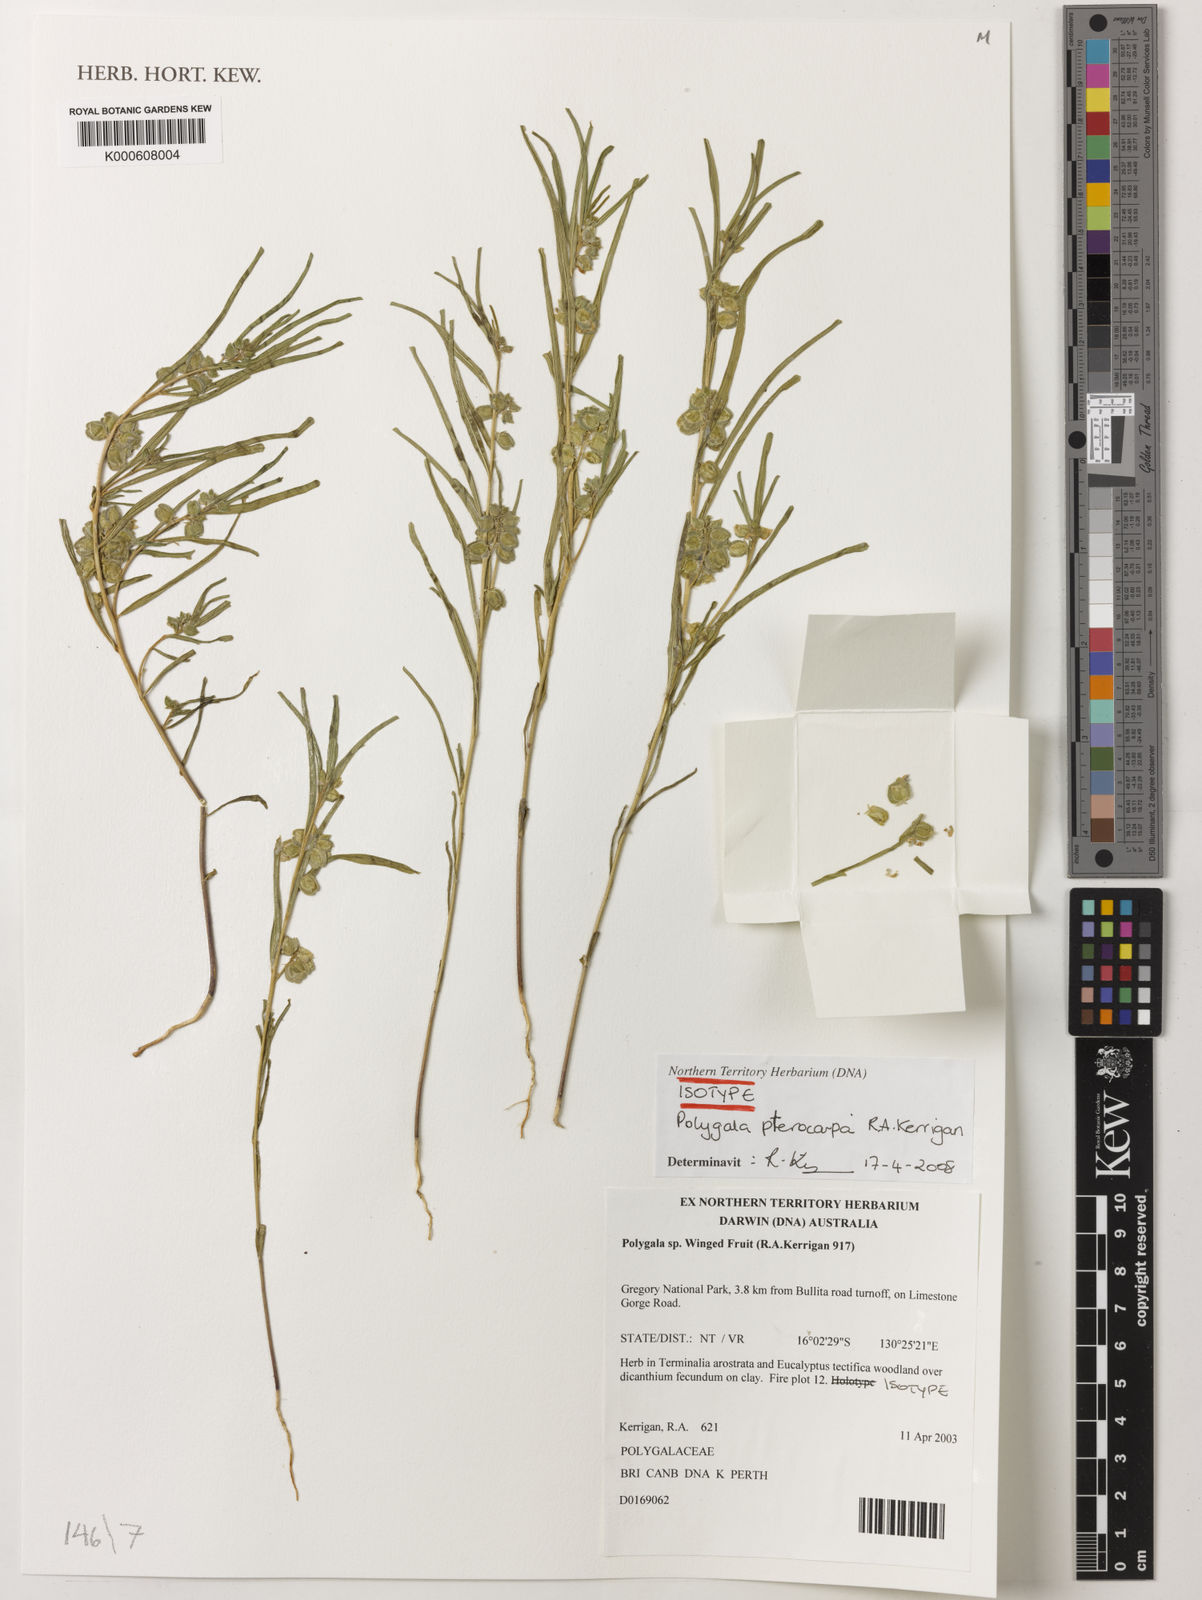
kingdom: Plantae
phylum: Tracheophyta
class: Magnoliopsida
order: Fabales
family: Polygalaceae
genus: Polygala
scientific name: Polygala pterocarpa
